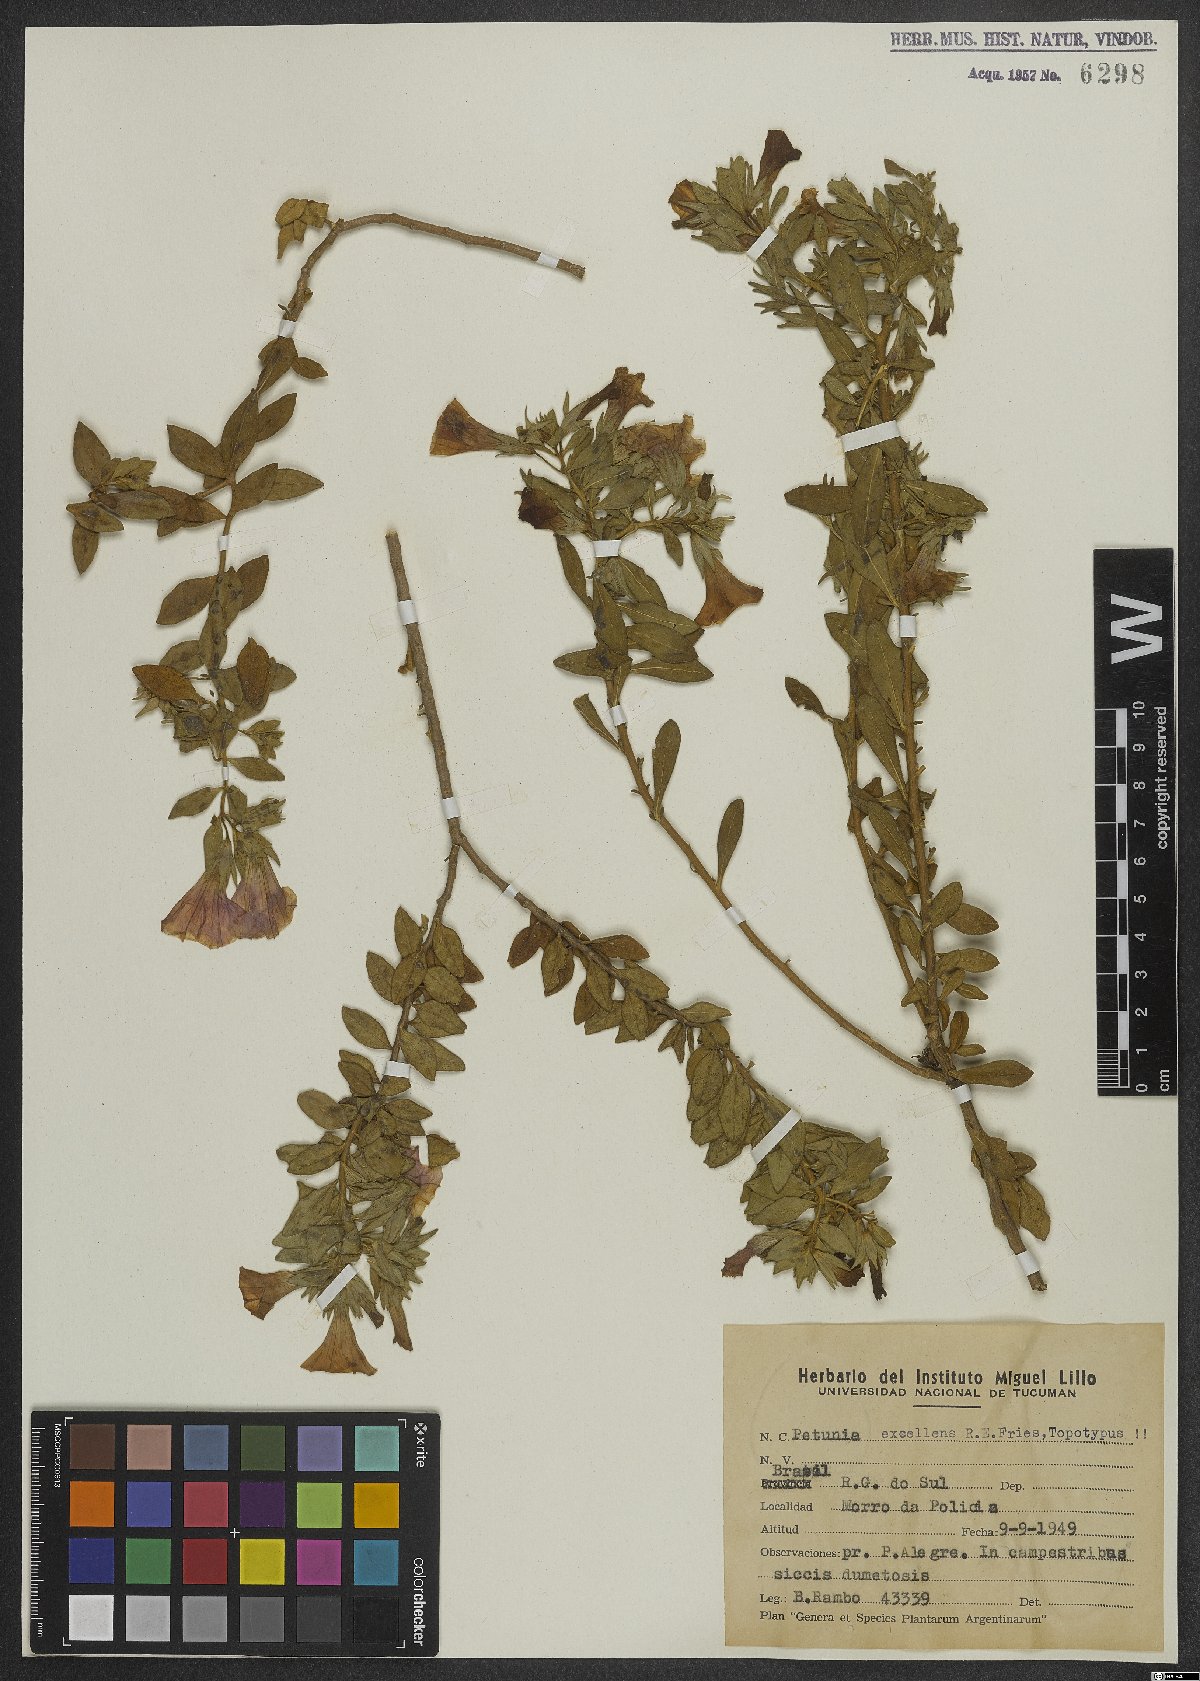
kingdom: Plantae
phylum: Tracheophyta
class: Magnoliopsida
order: Solanales
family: Solanaceae
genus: Calibrachoa
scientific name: Calibrachoa excellens
